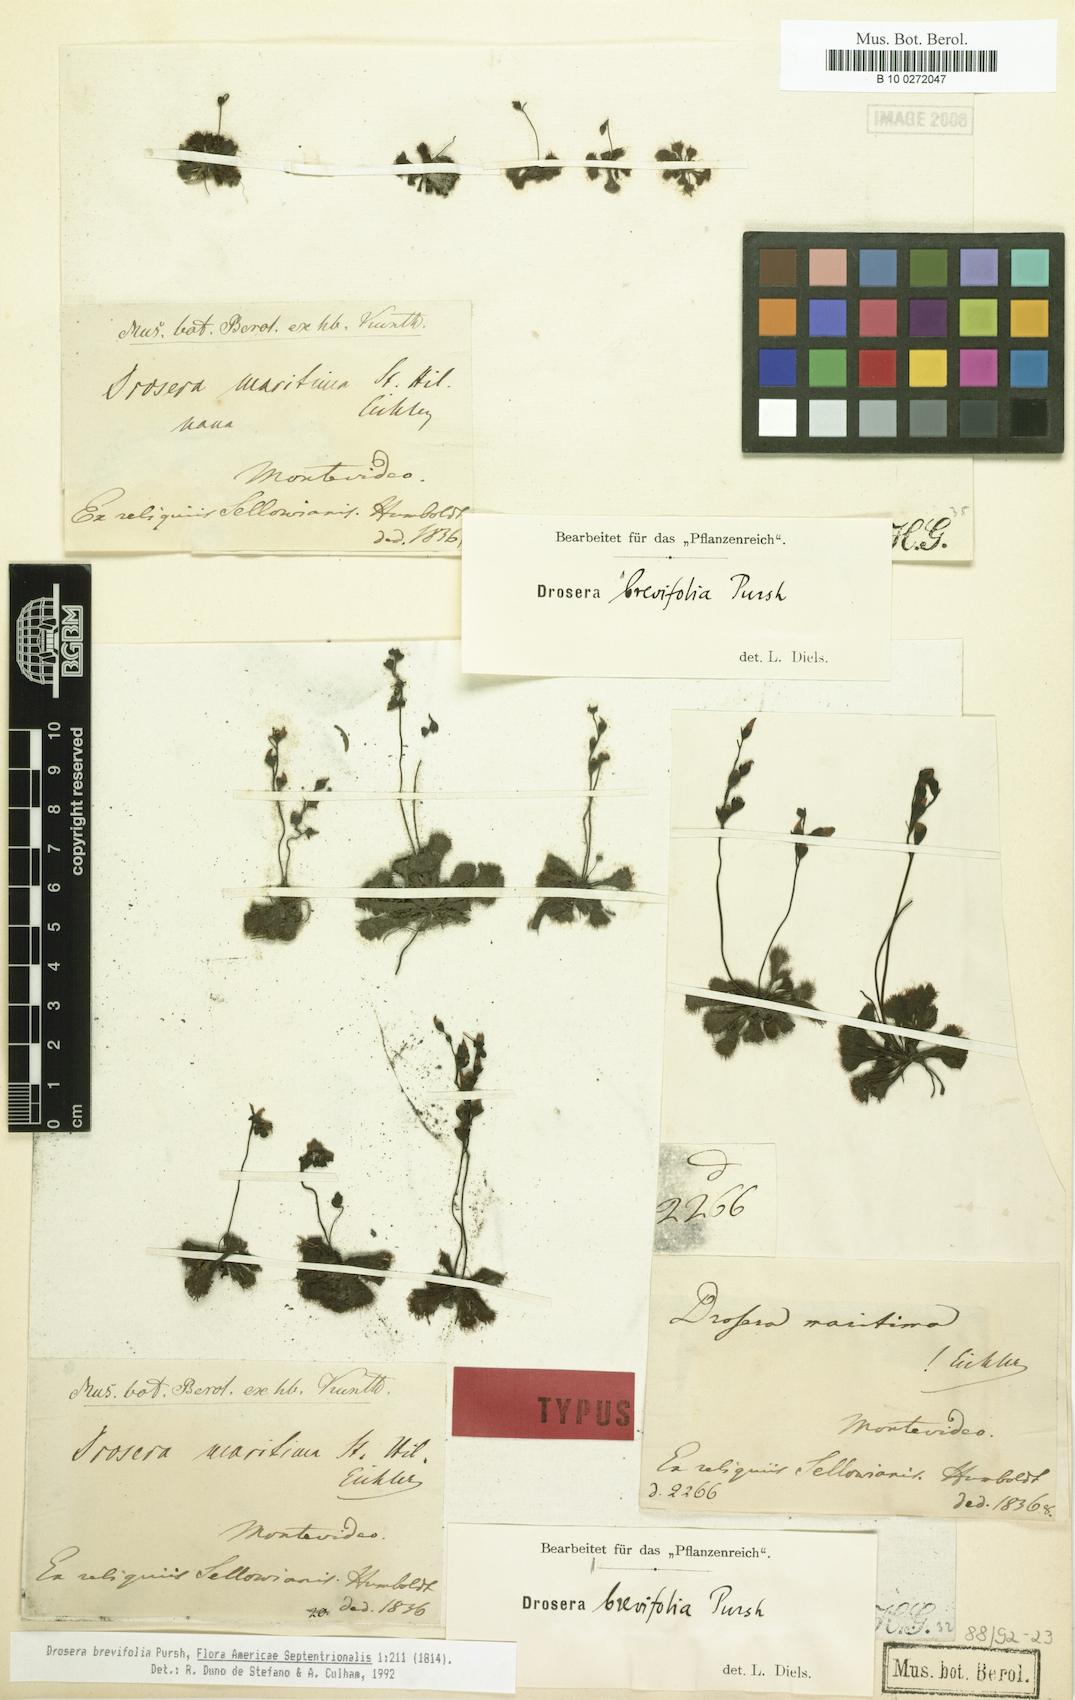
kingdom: Plantae
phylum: Tracheophyta
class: Magnoliopsida
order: Caryophyllales
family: Droseraceae
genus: Drosera
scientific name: Drosera brevifolia
